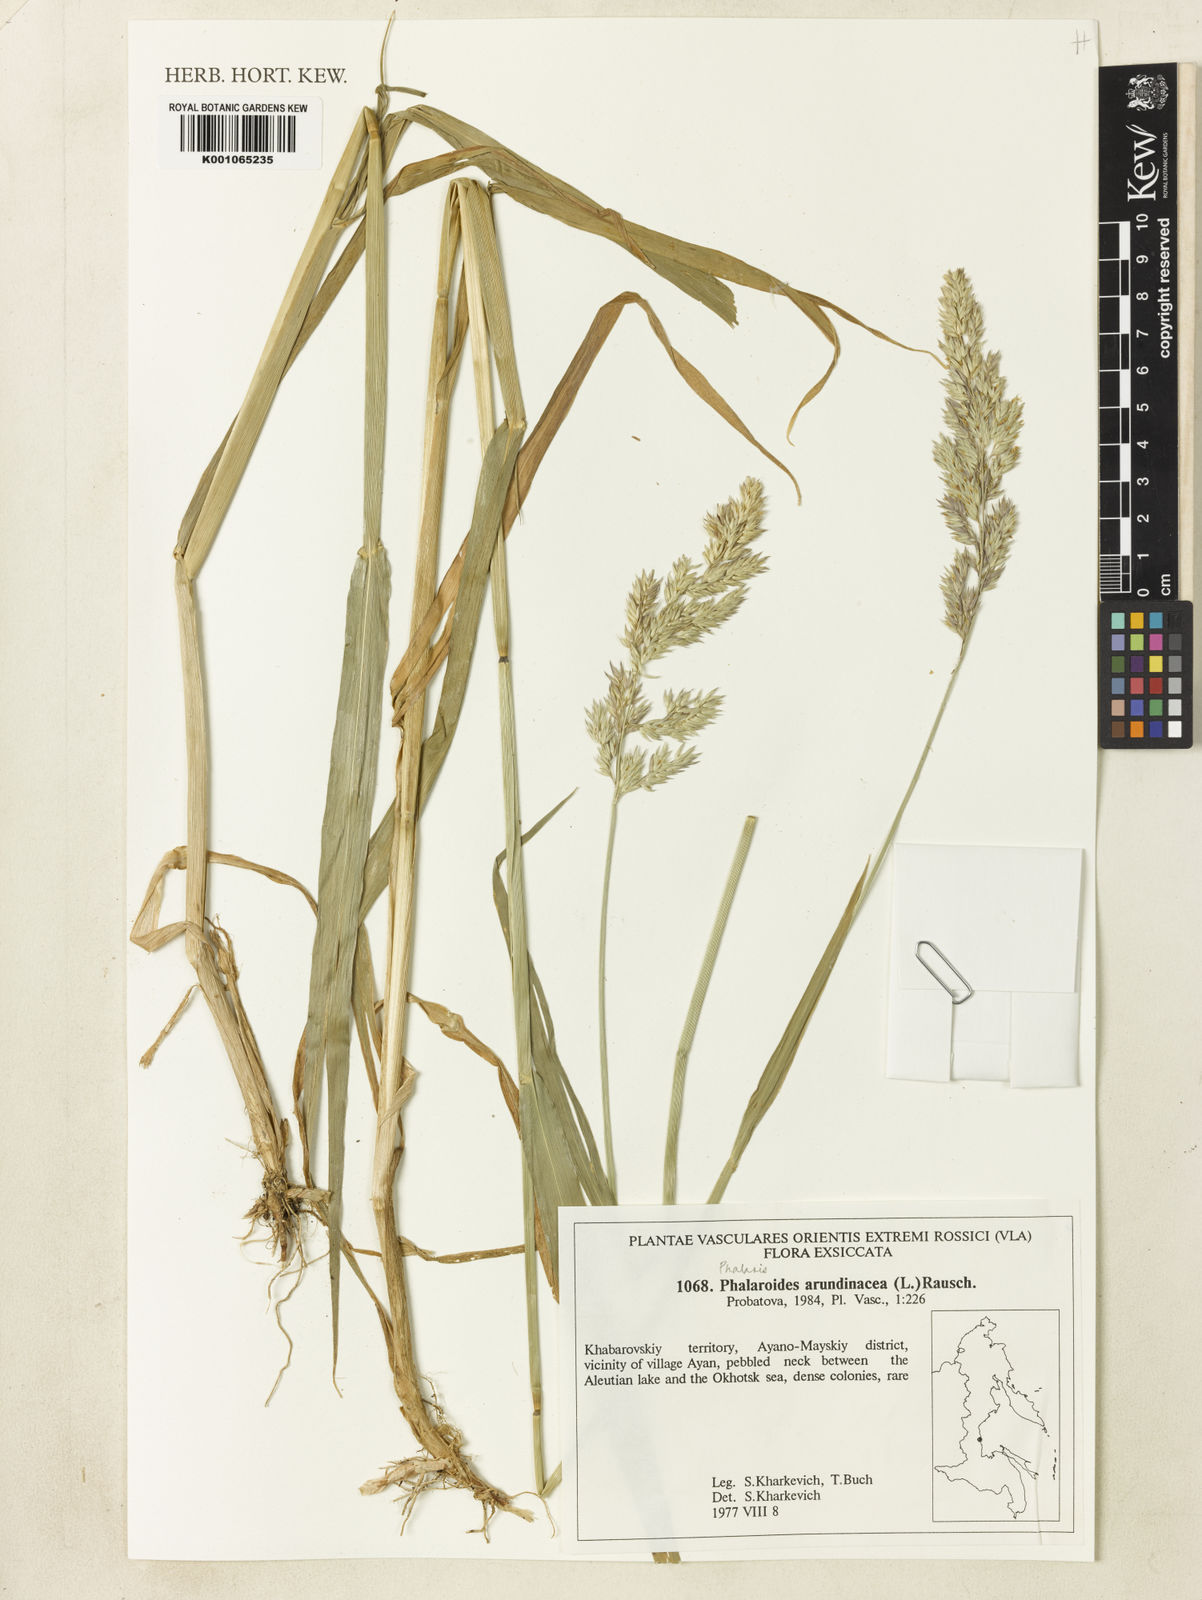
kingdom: Plantae
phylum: Tracheophyta
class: Liliopsida
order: Poales
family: Poaceae
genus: Phalaris
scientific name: Phalaris arundinacea
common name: Reed canary-grass
